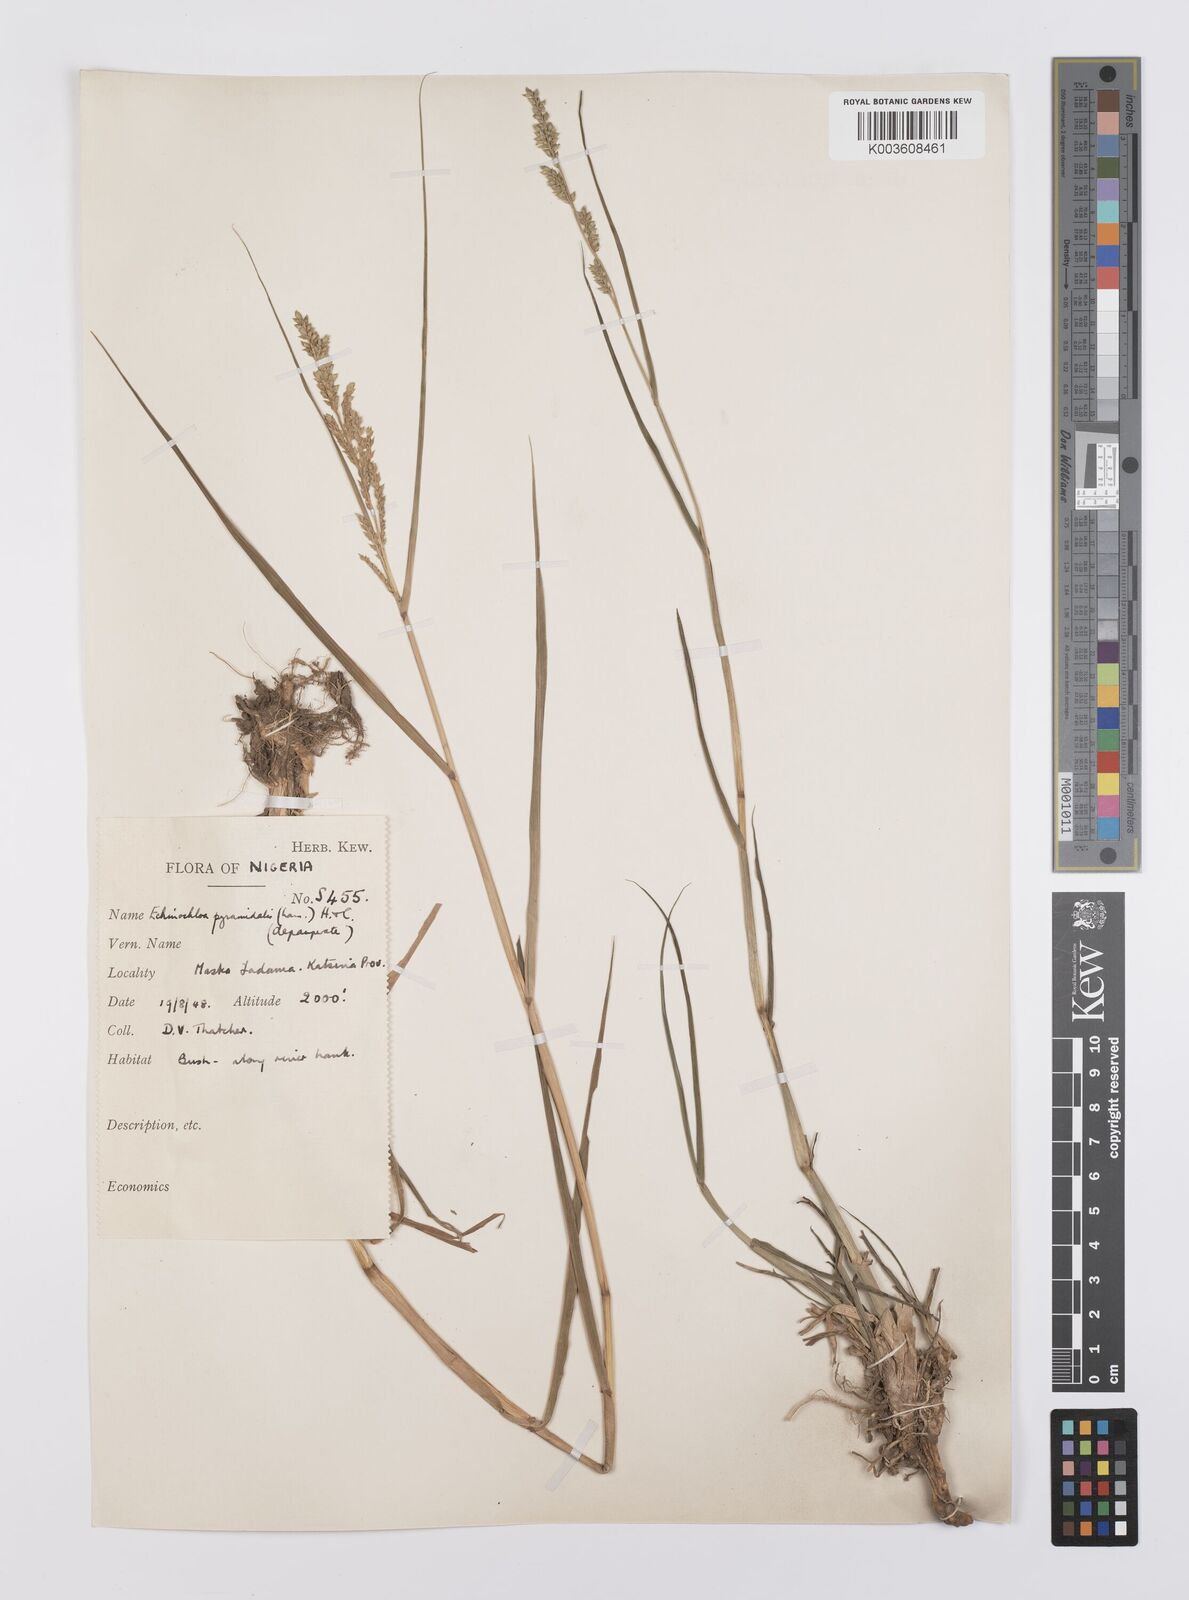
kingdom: Plantae
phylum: Tracheophyta
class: Liliopsida
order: Poales
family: Poaceae
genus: Echinochloa
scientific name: Echinochloa pyramidalis
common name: Antelope grass
